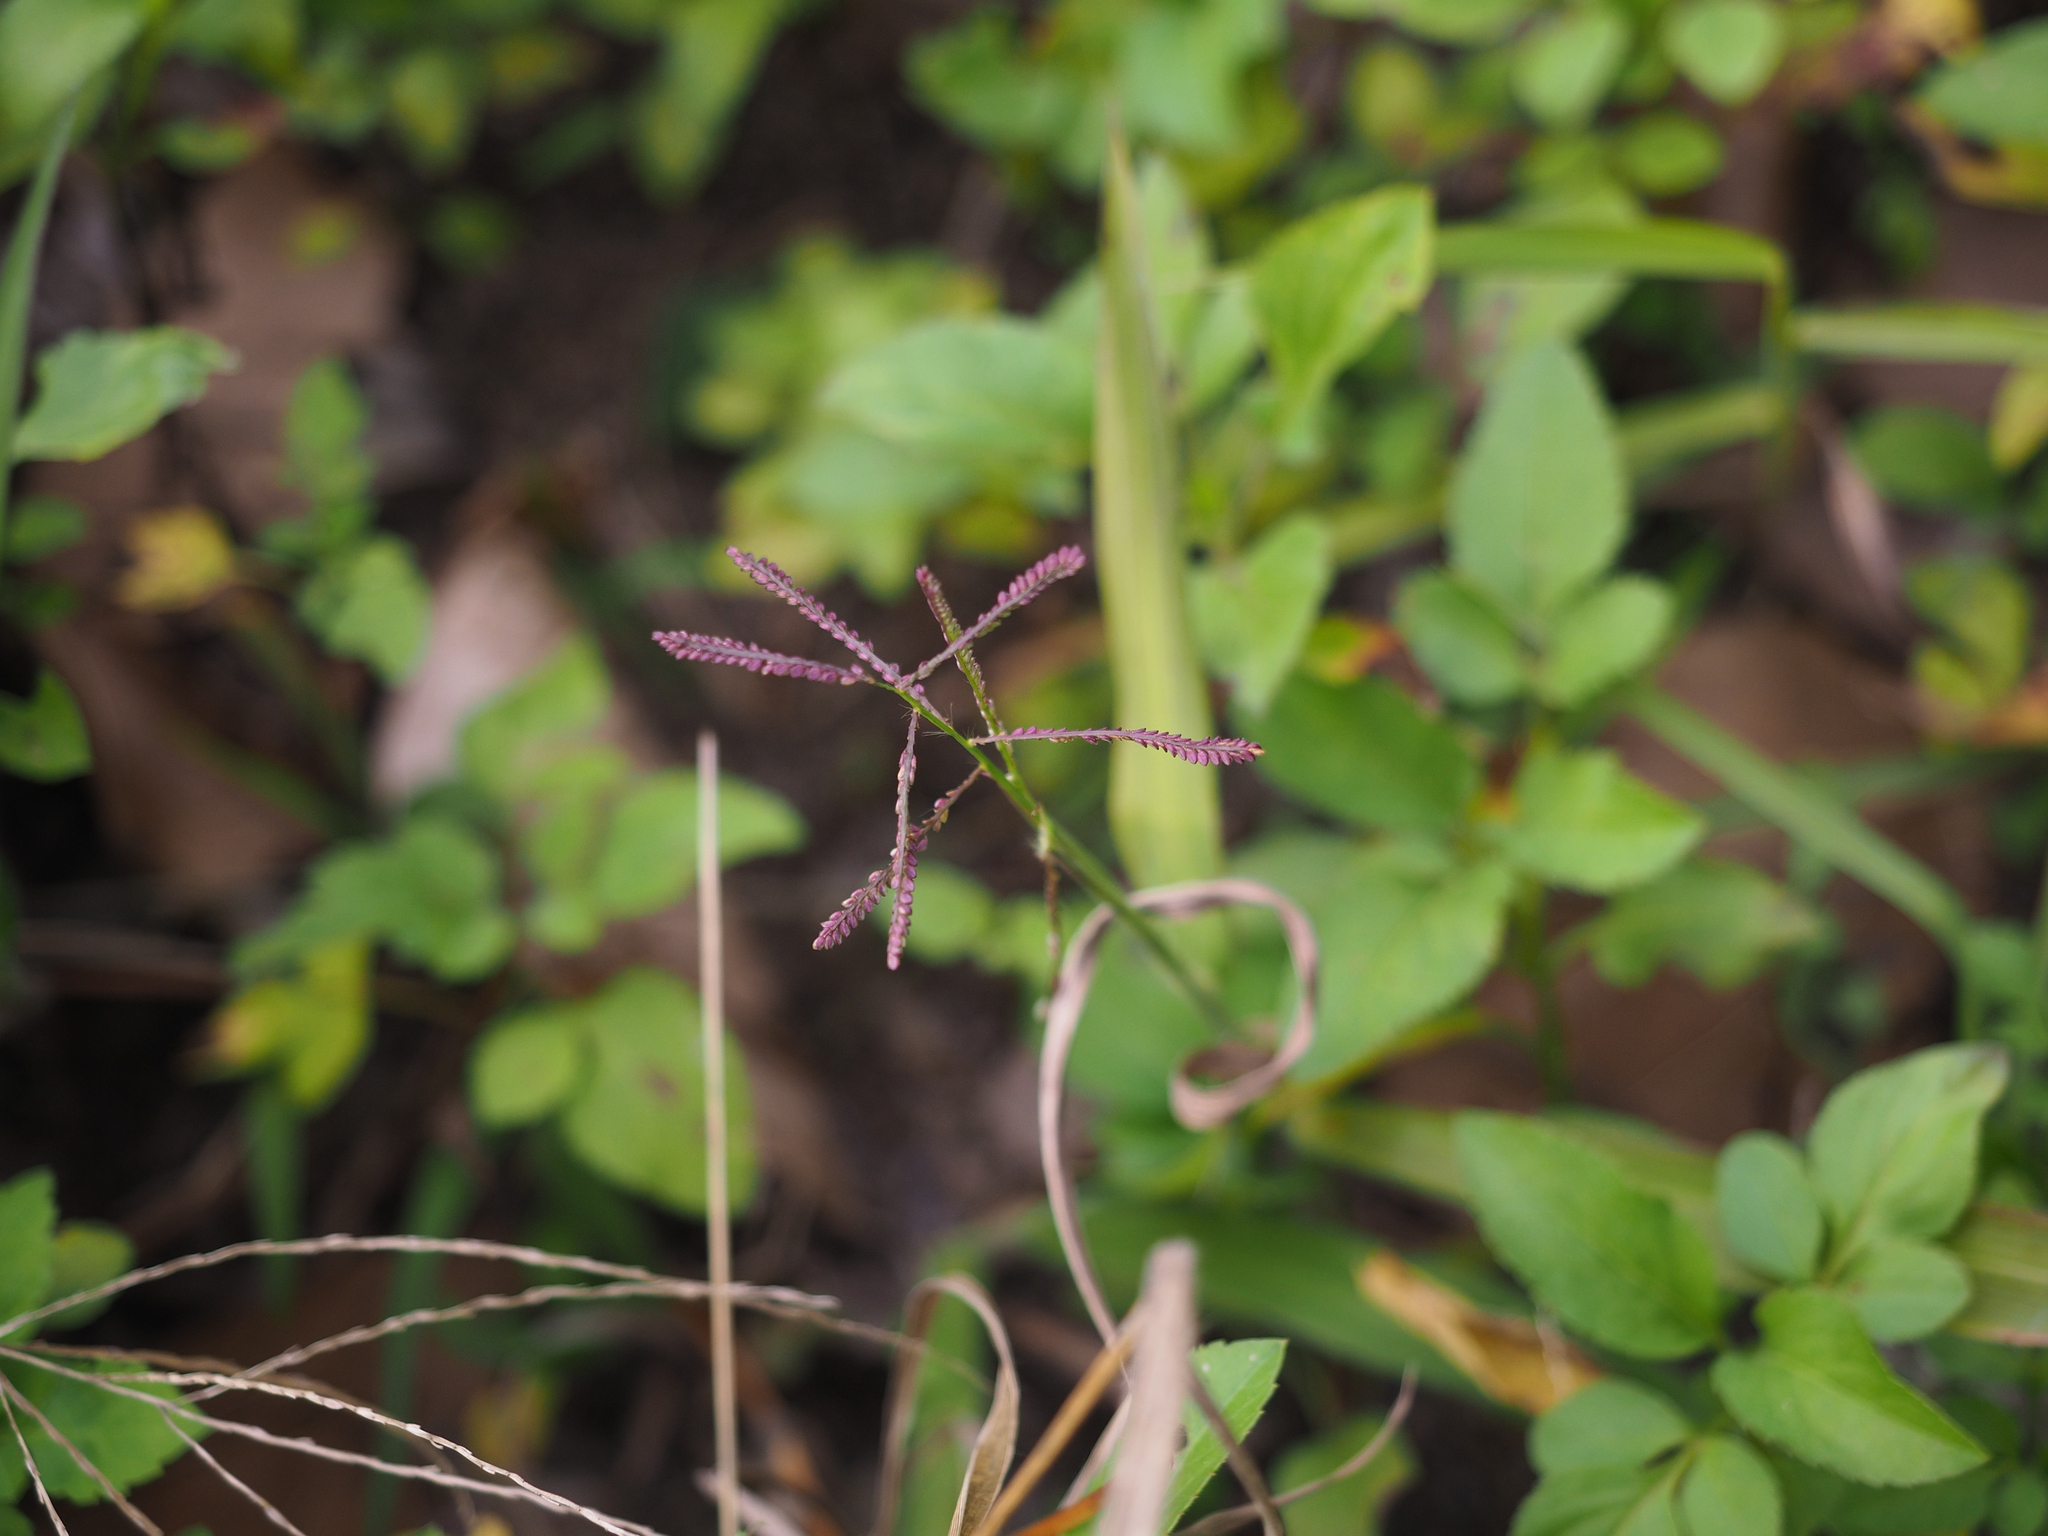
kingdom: Plantae
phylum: Tracheophyta
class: Liliopsida
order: Poales
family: Poaceae
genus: Paspalum
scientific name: Paspalum paniculatum
